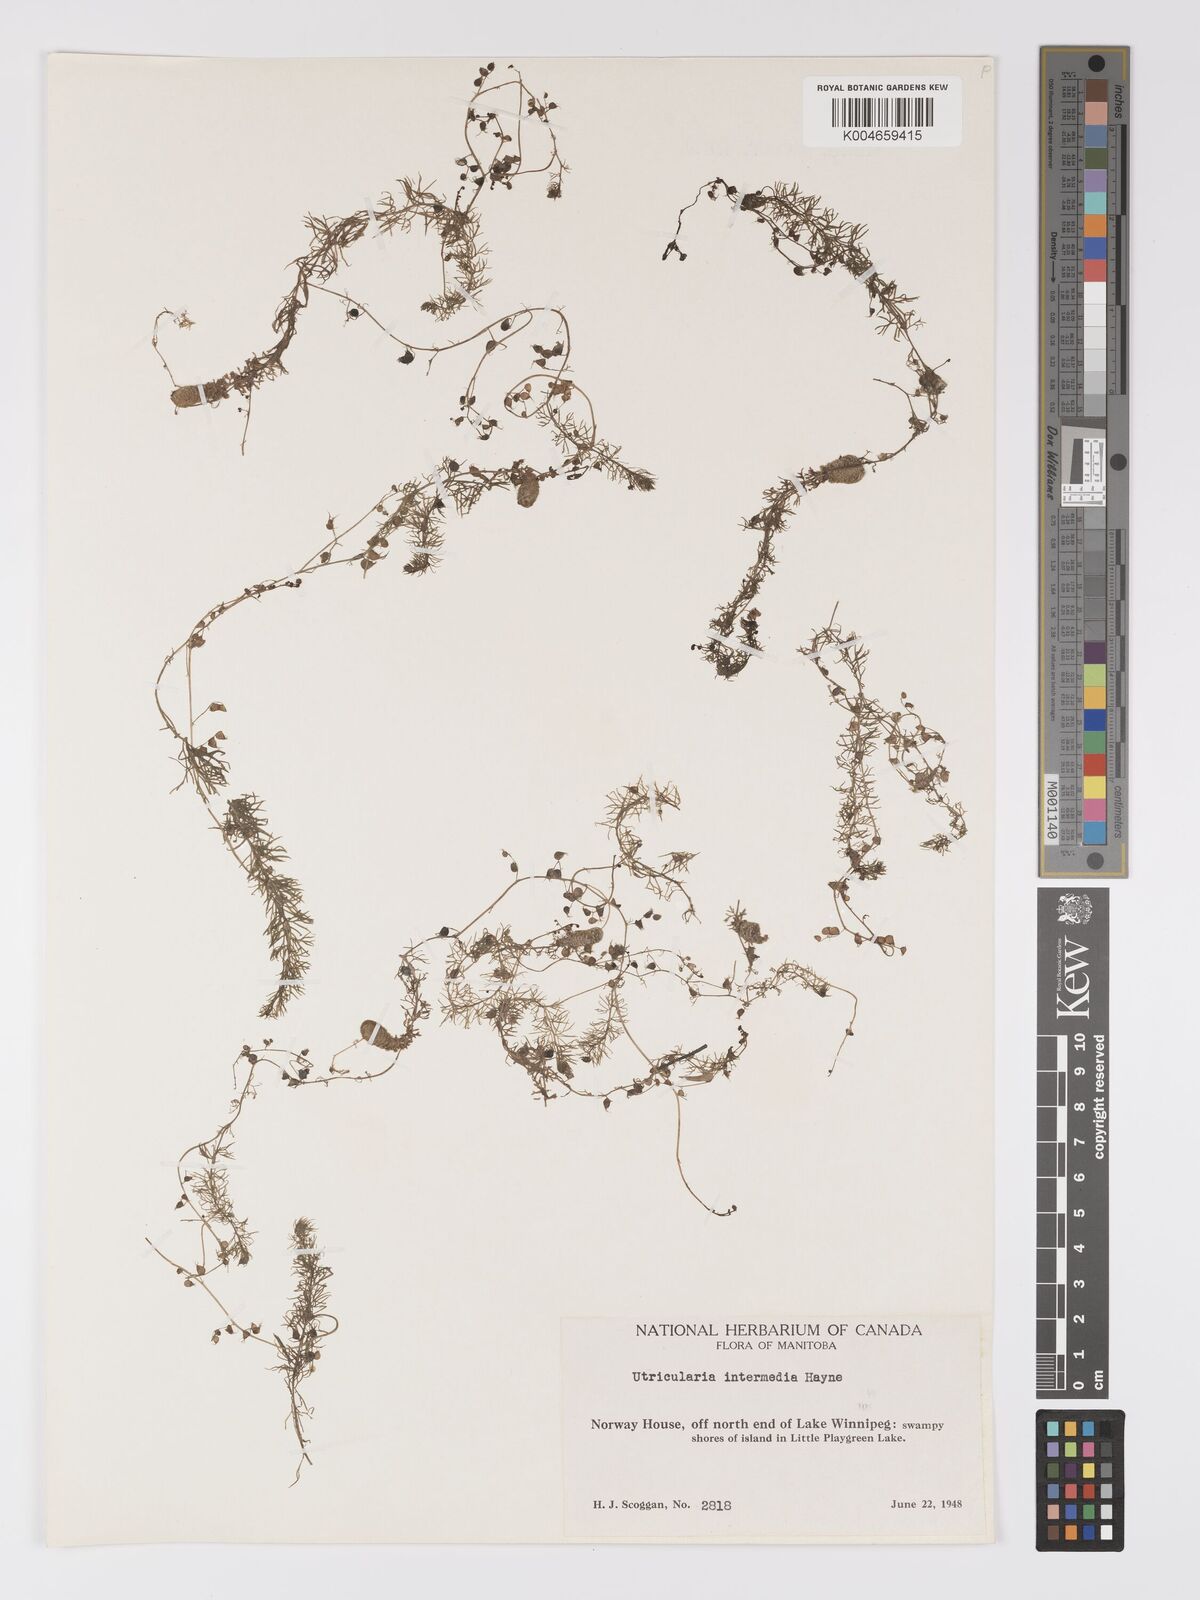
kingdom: Plantae
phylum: Tracheophyta
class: Magnoliopsida
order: Lamiales
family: Lentibulariaceae
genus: Utricularia
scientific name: Utricularia intermedia
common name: Intermediate bladderwort
